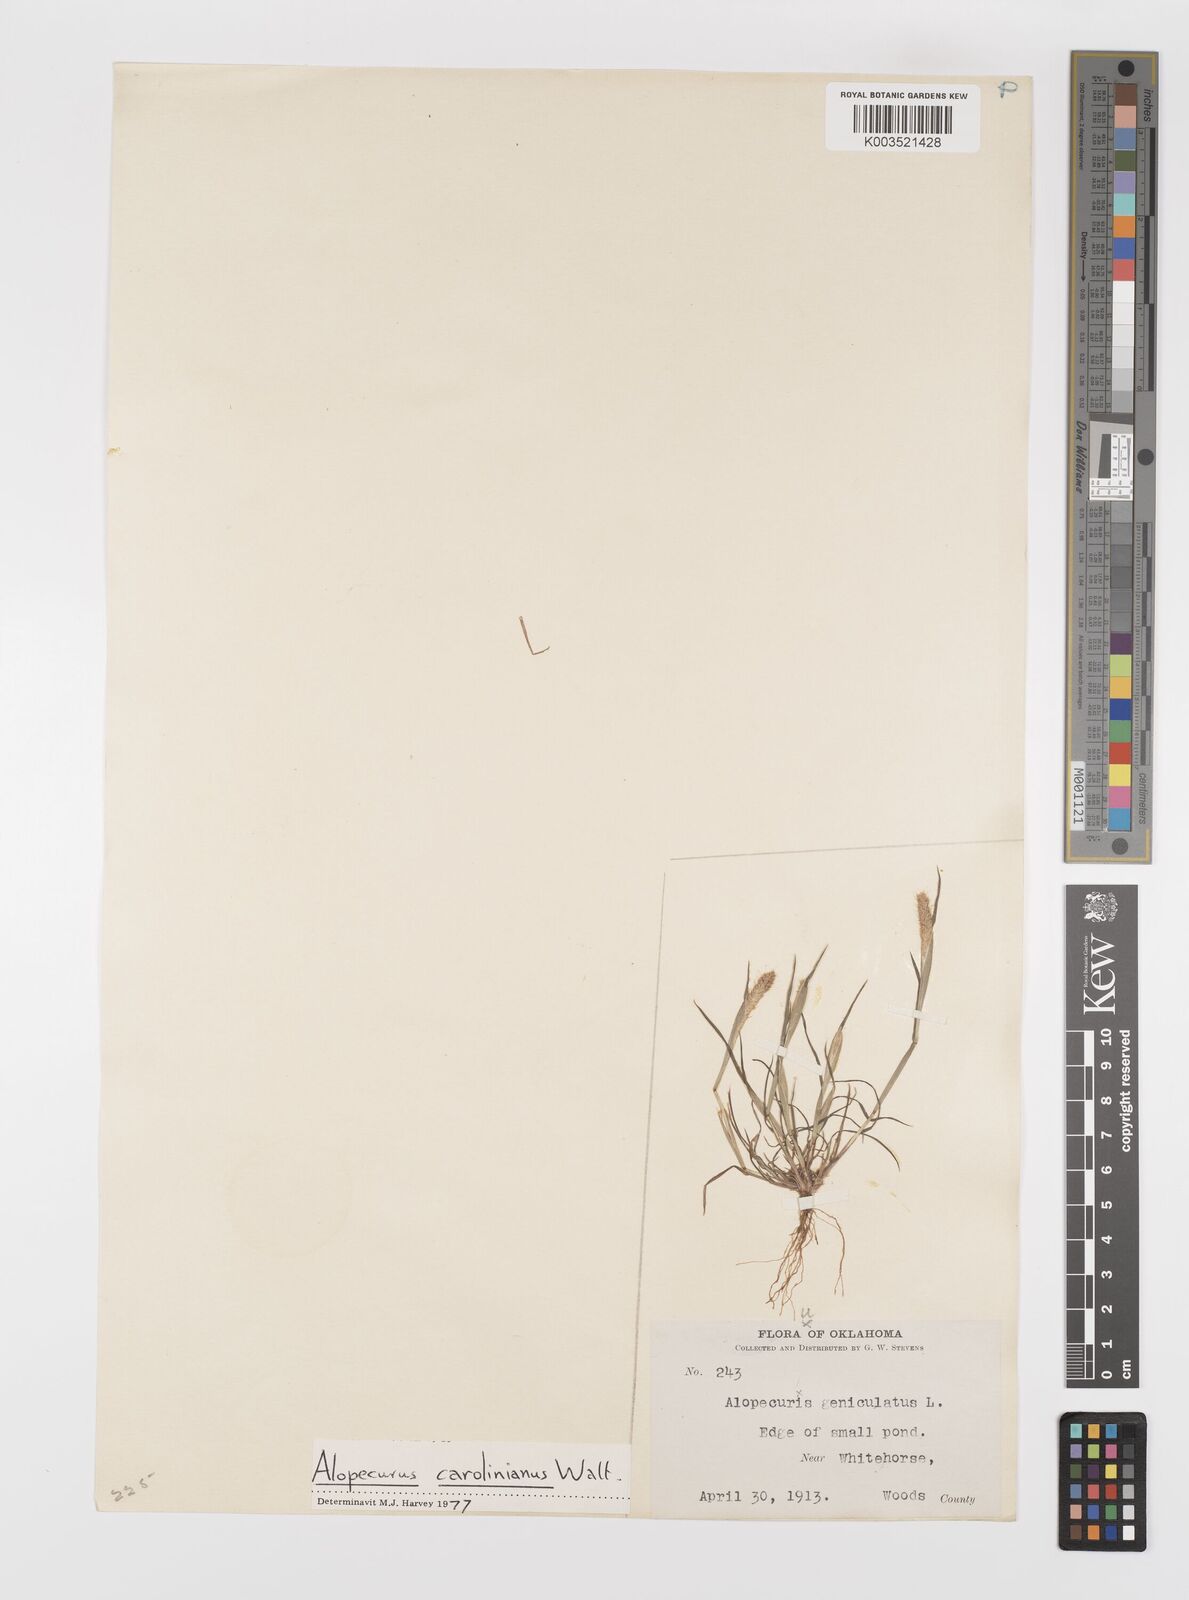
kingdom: Plantae
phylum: Tracheophyta
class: Liliopsida
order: Poales
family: Poaceae
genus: Alopecurus
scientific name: Alopecurus carolinianus
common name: Tufted foxtail
